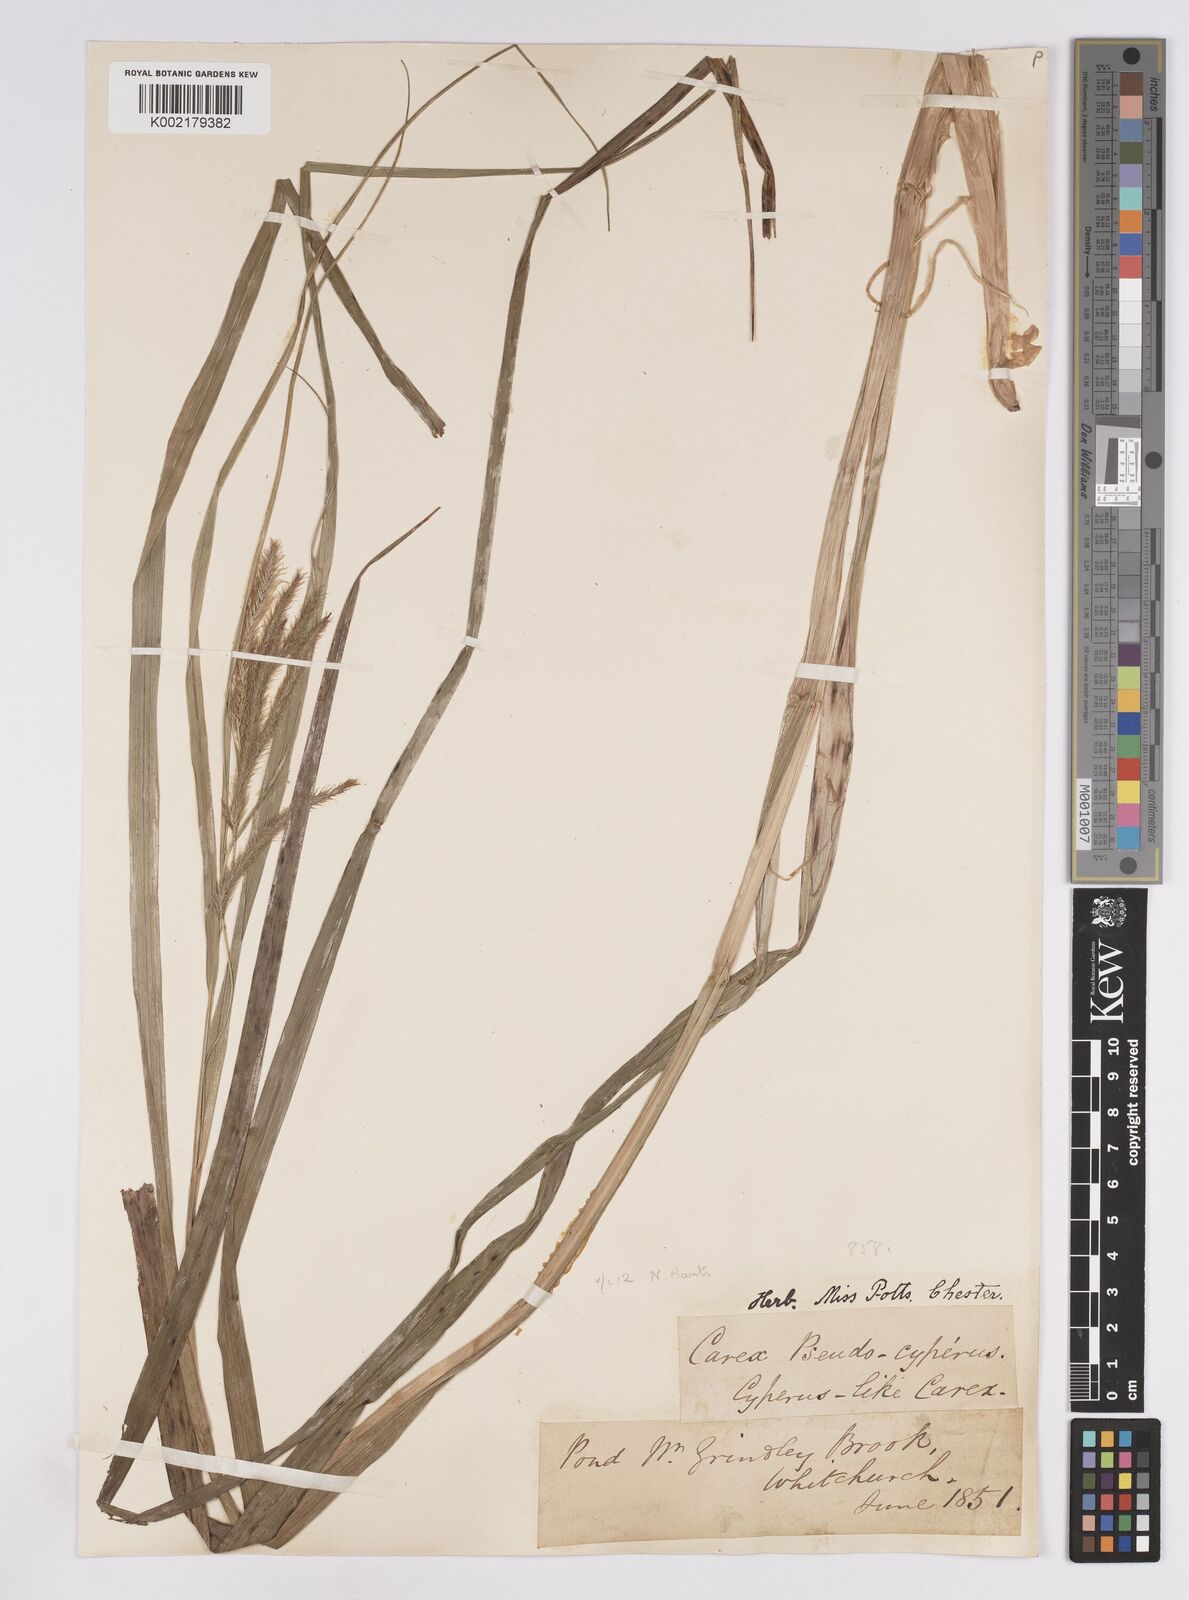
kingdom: Plantae
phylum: Tracheophyta
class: Liliopsida
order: Poales
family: Cyperaceae
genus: Carex
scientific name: Carex pseudocyperus
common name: Cyperus sedge
